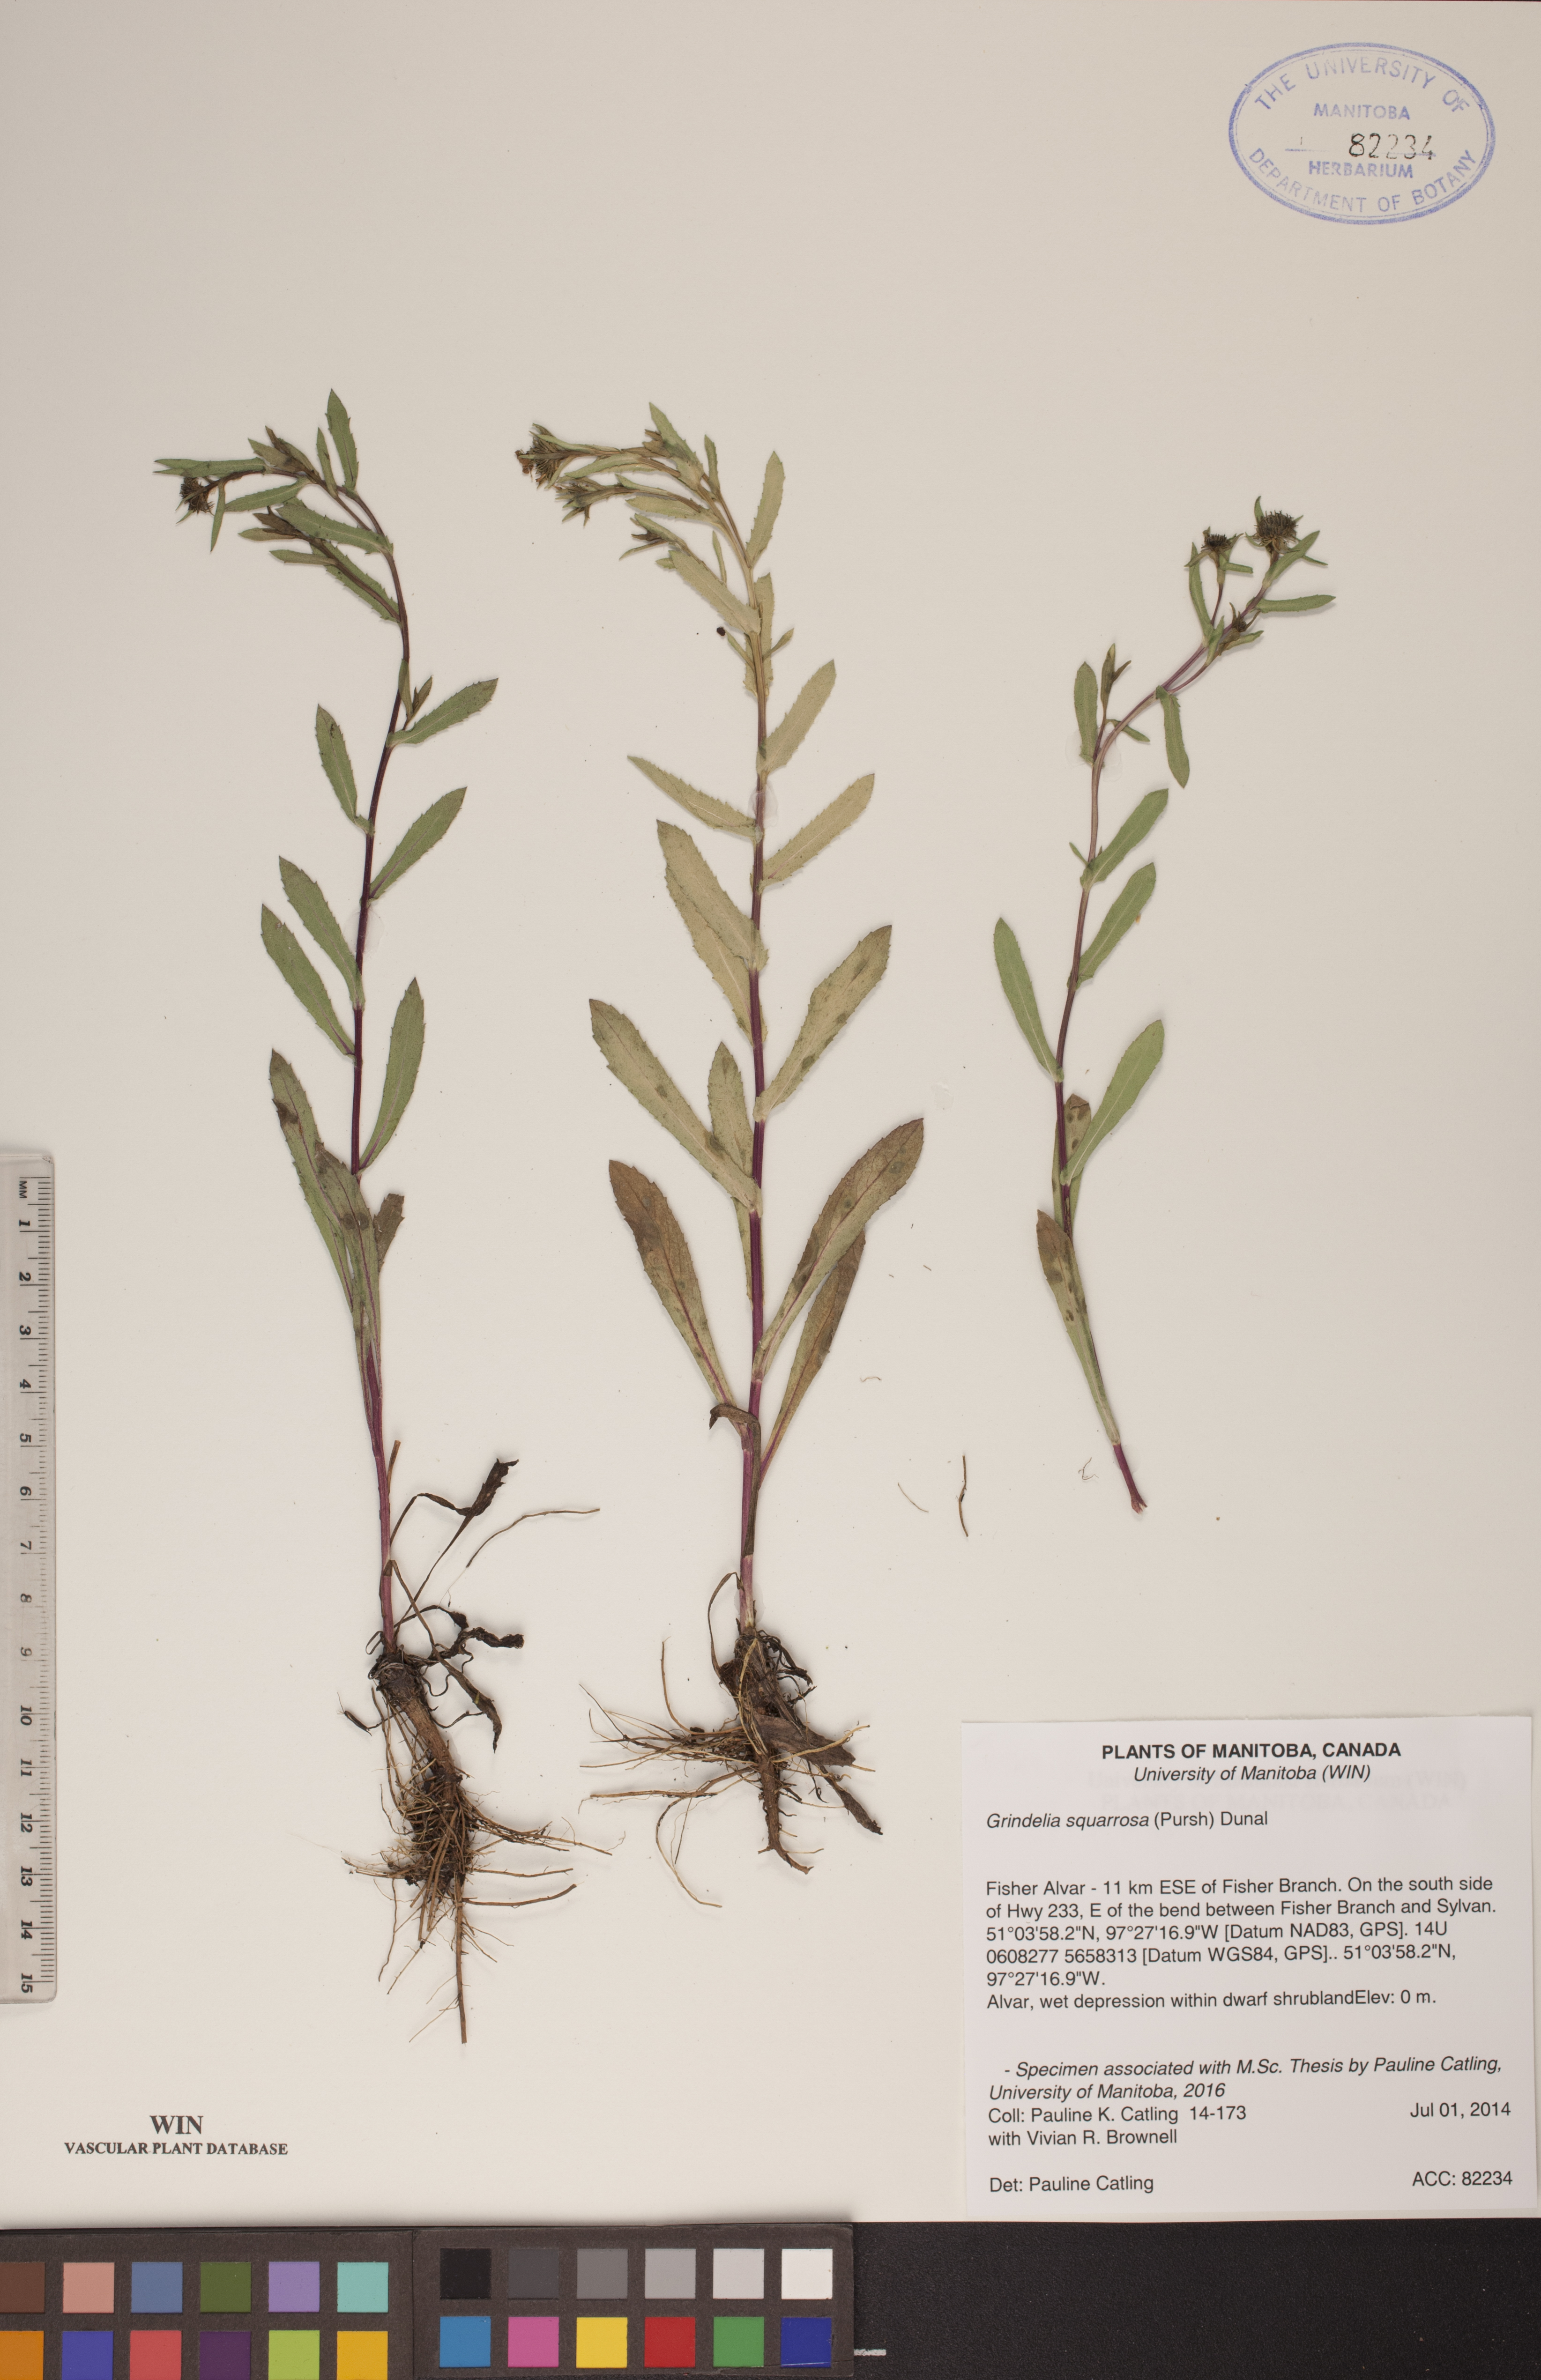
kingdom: Plantae
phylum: Tracheophyta
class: Magnoliopsida
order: Asterales
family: Asteraceae
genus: Grindelia
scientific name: Grindelia squarrosa
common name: Curly-cup gumweed
